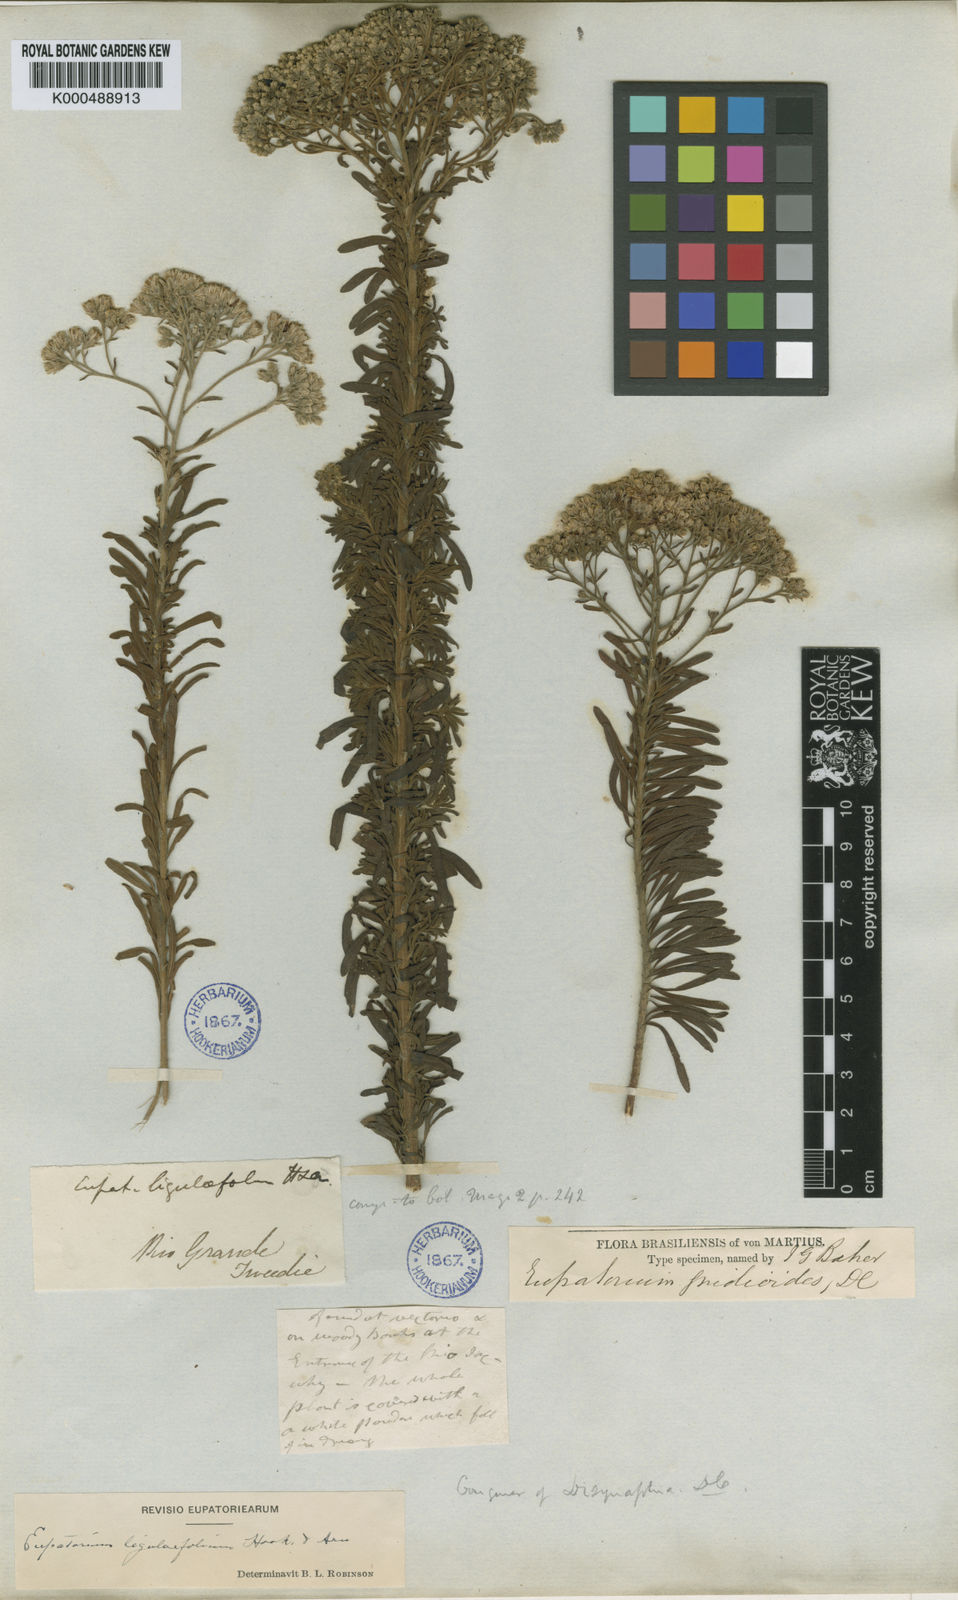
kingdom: Plantae
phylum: Tracheophyta
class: Magnoliopsida
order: Asterales
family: Asteraceae
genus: Disynaphia
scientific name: Disynaphia ligulifolia
